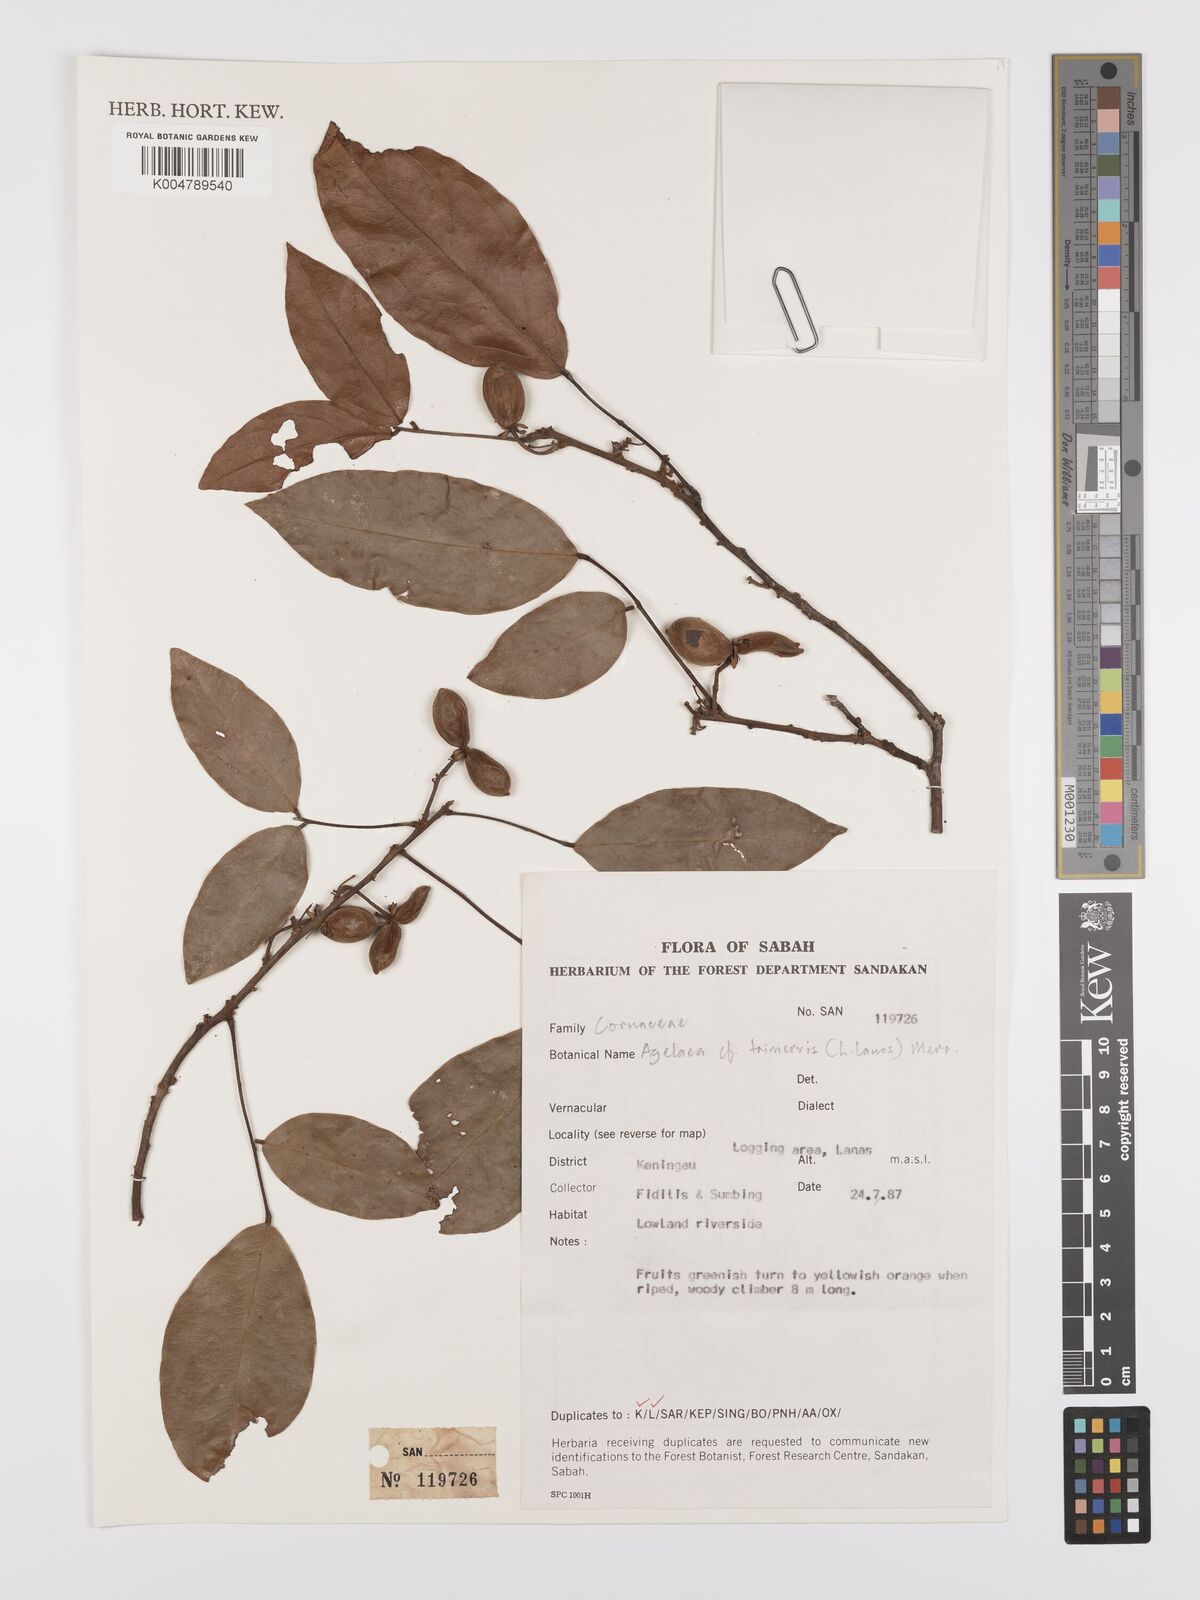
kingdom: Plantae
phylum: Tracheophyta
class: Magnoliopsida
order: Oxalidales
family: Connaraceae
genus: Agelaea
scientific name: Agelaea trinervis
